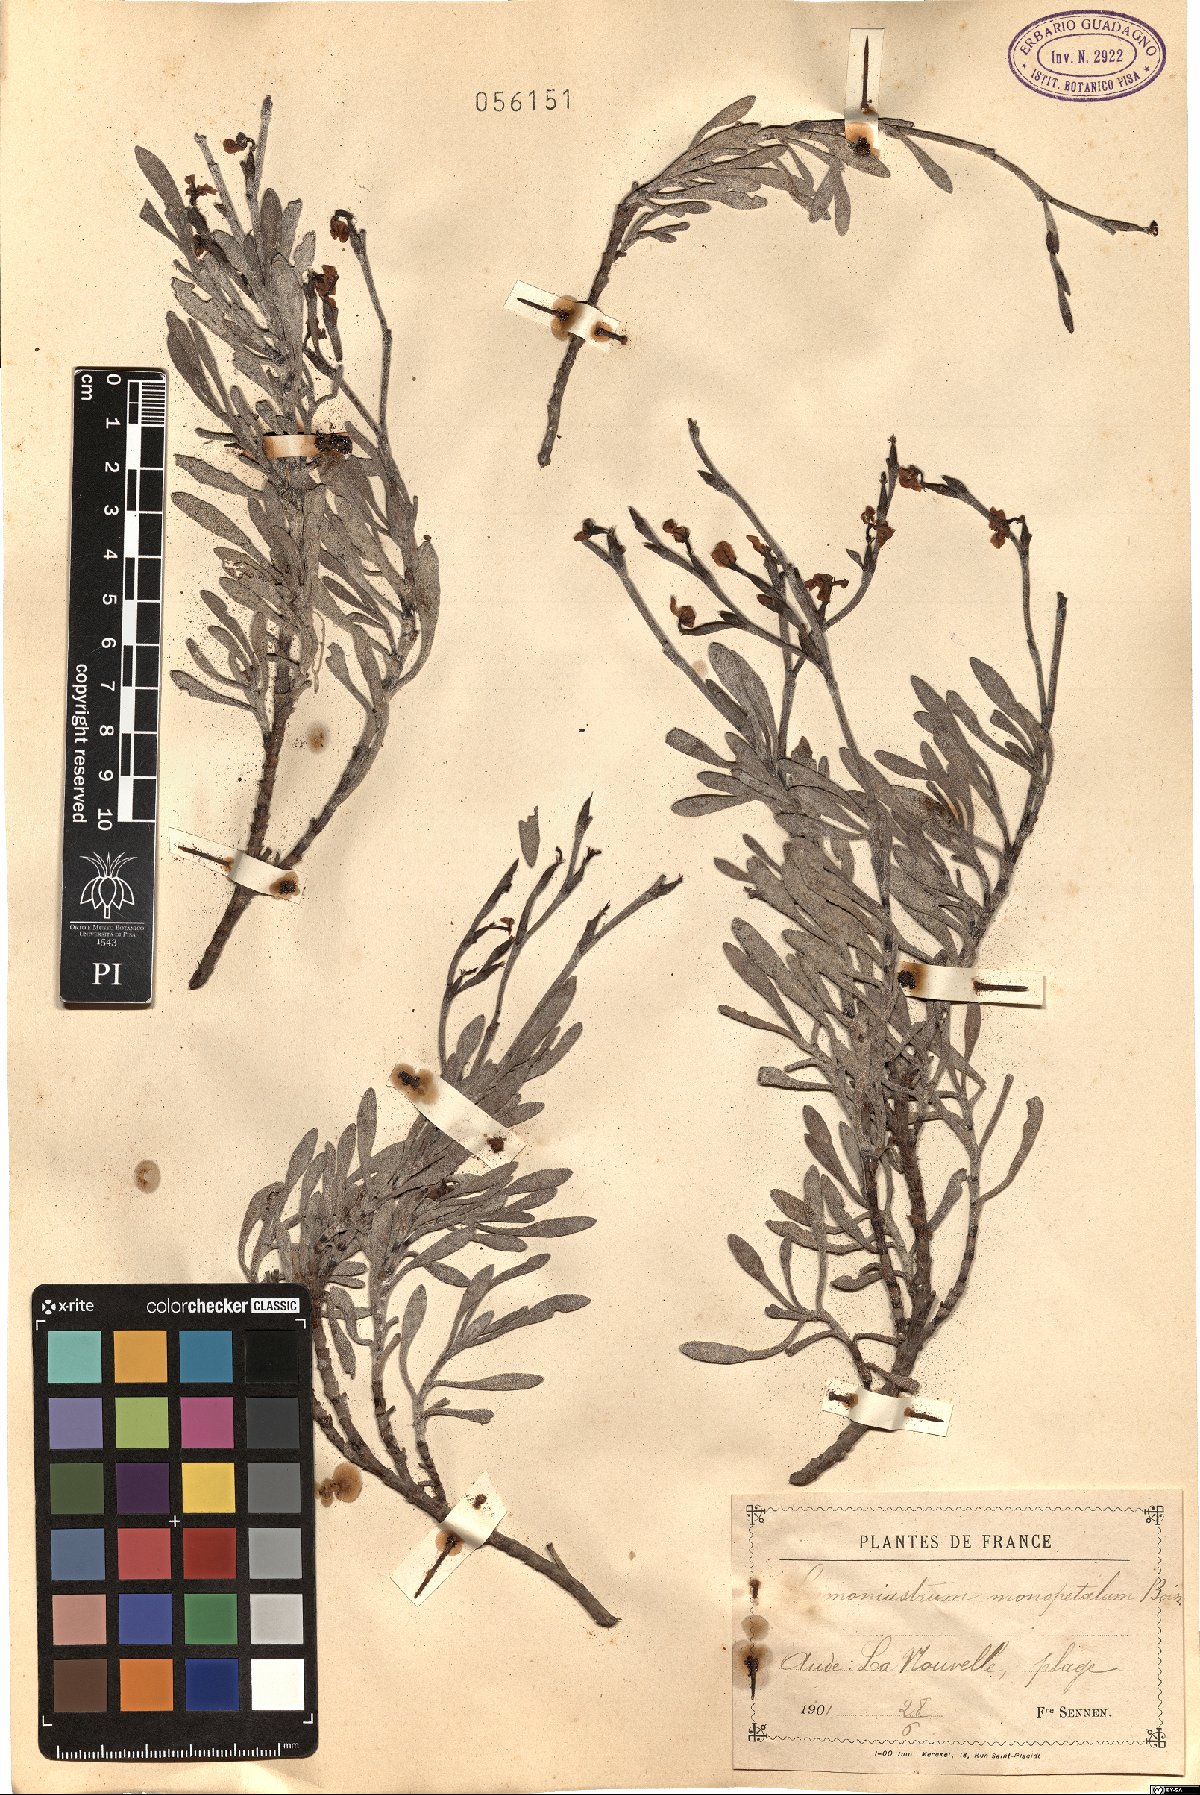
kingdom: Plantae
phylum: Tracheophyta
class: Magnoliopsida
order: Caryophyllales
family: Plumbaginaceae
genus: Limoniastrum
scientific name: Limoniastrum monopetalum
